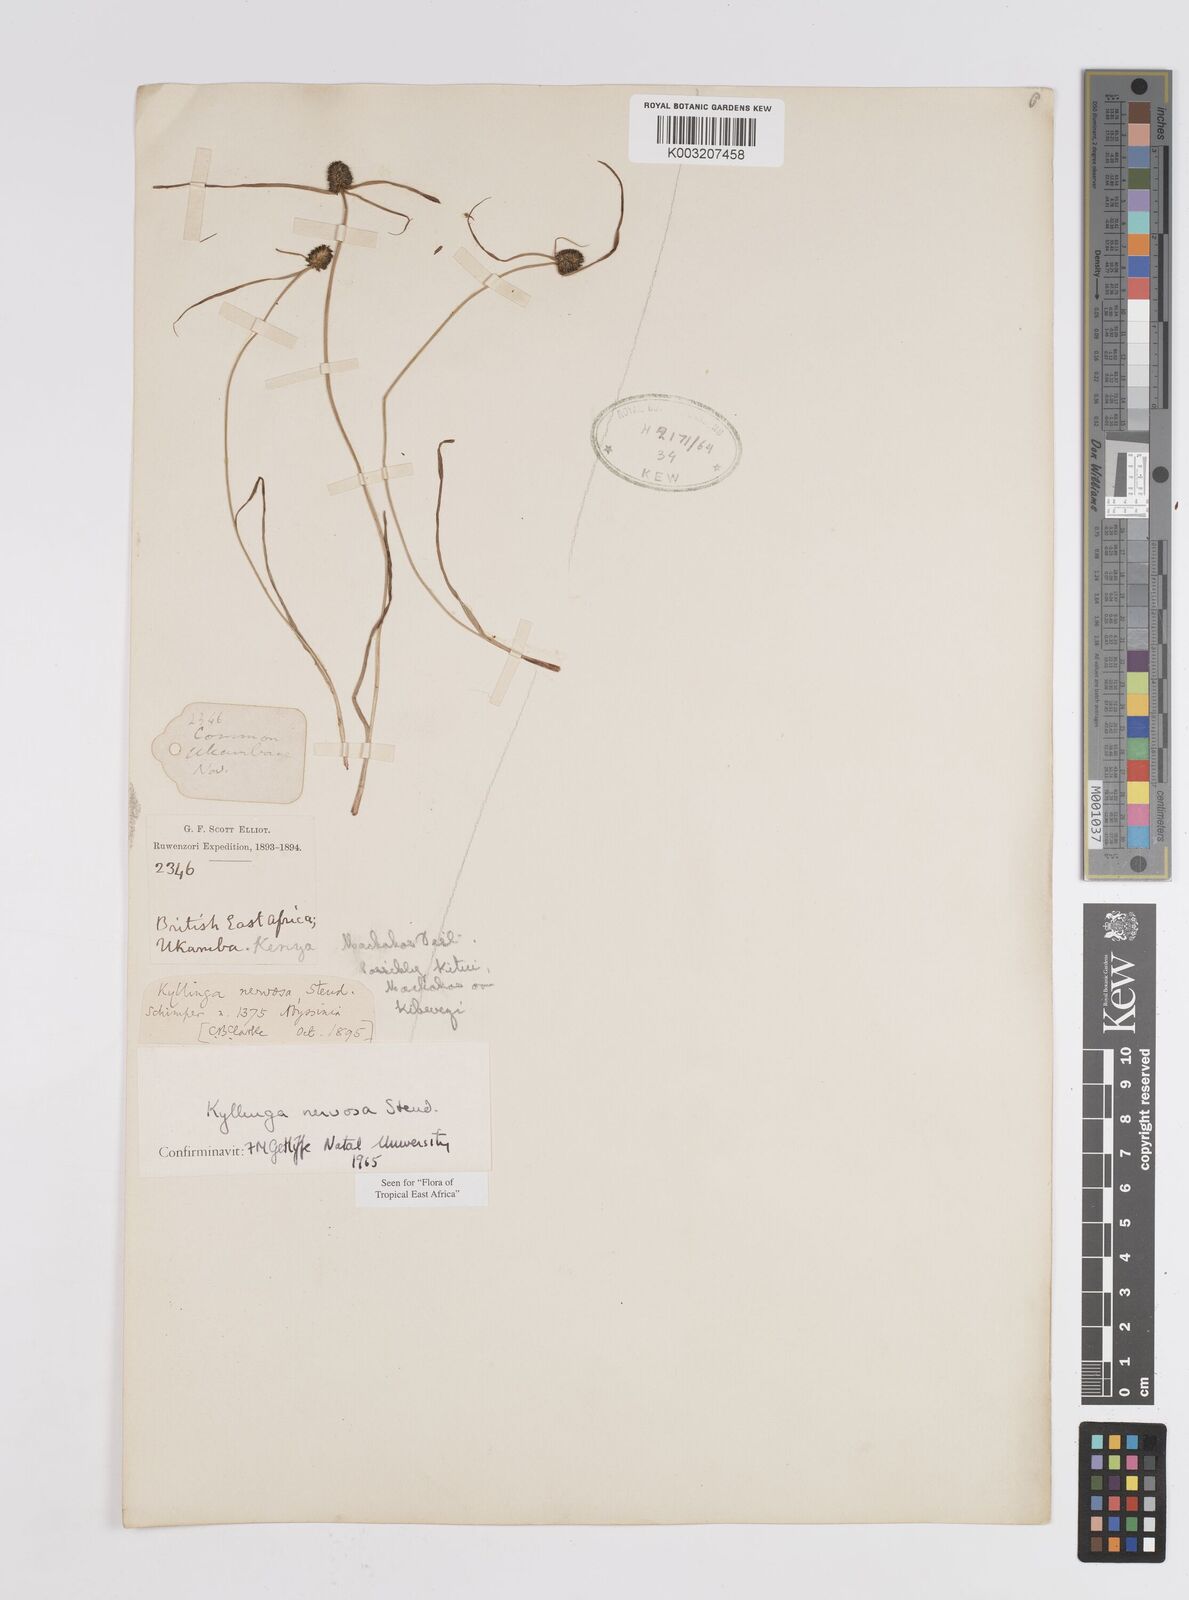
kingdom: Plantae
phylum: Tracheophyta
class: Liliopsida
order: Poales
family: Cyperaceae
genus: Cyperus
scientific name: Cyperus
